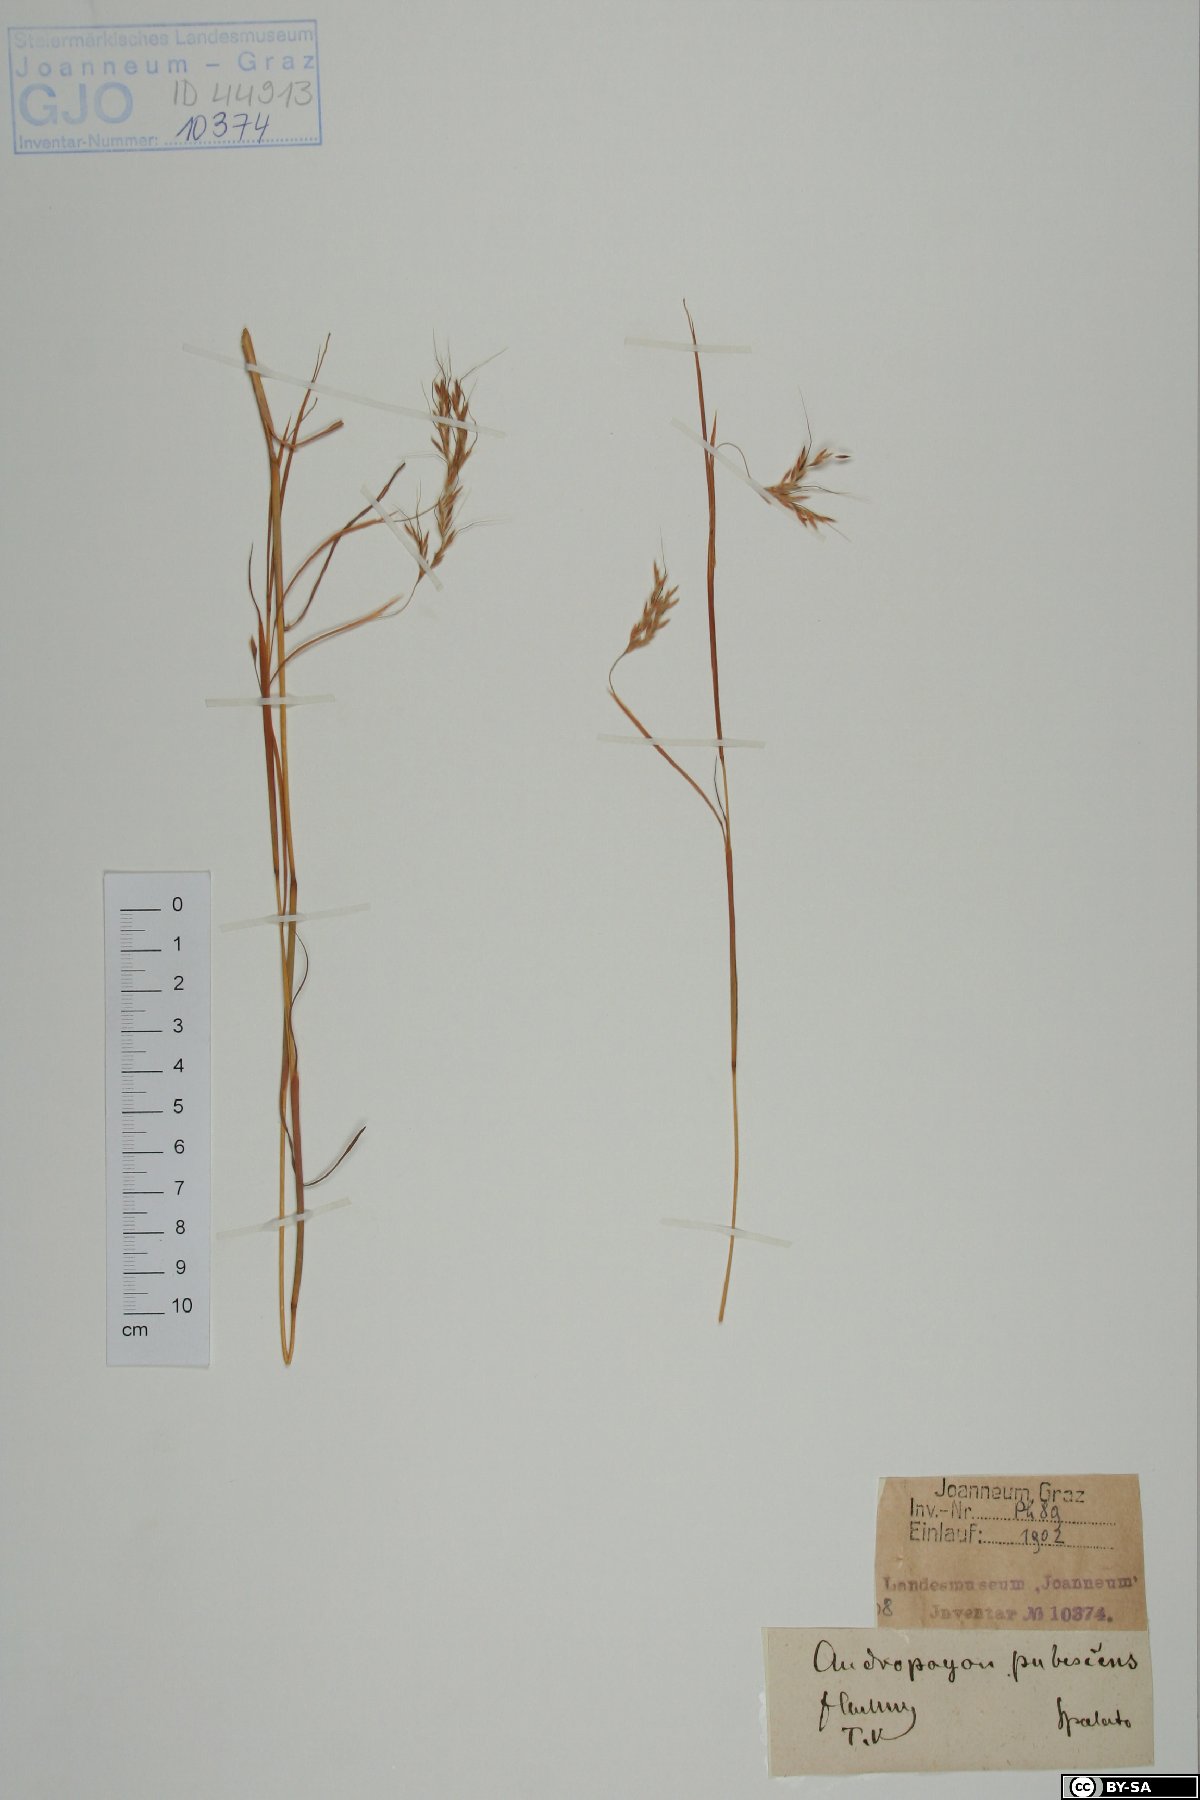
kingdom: Plantae
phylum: Tracheophyta
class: Liliopsida
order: Poales
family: Poaceae
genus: Hyparrhenia
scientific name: Hyparrhenia hirta
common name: Thatching grass
